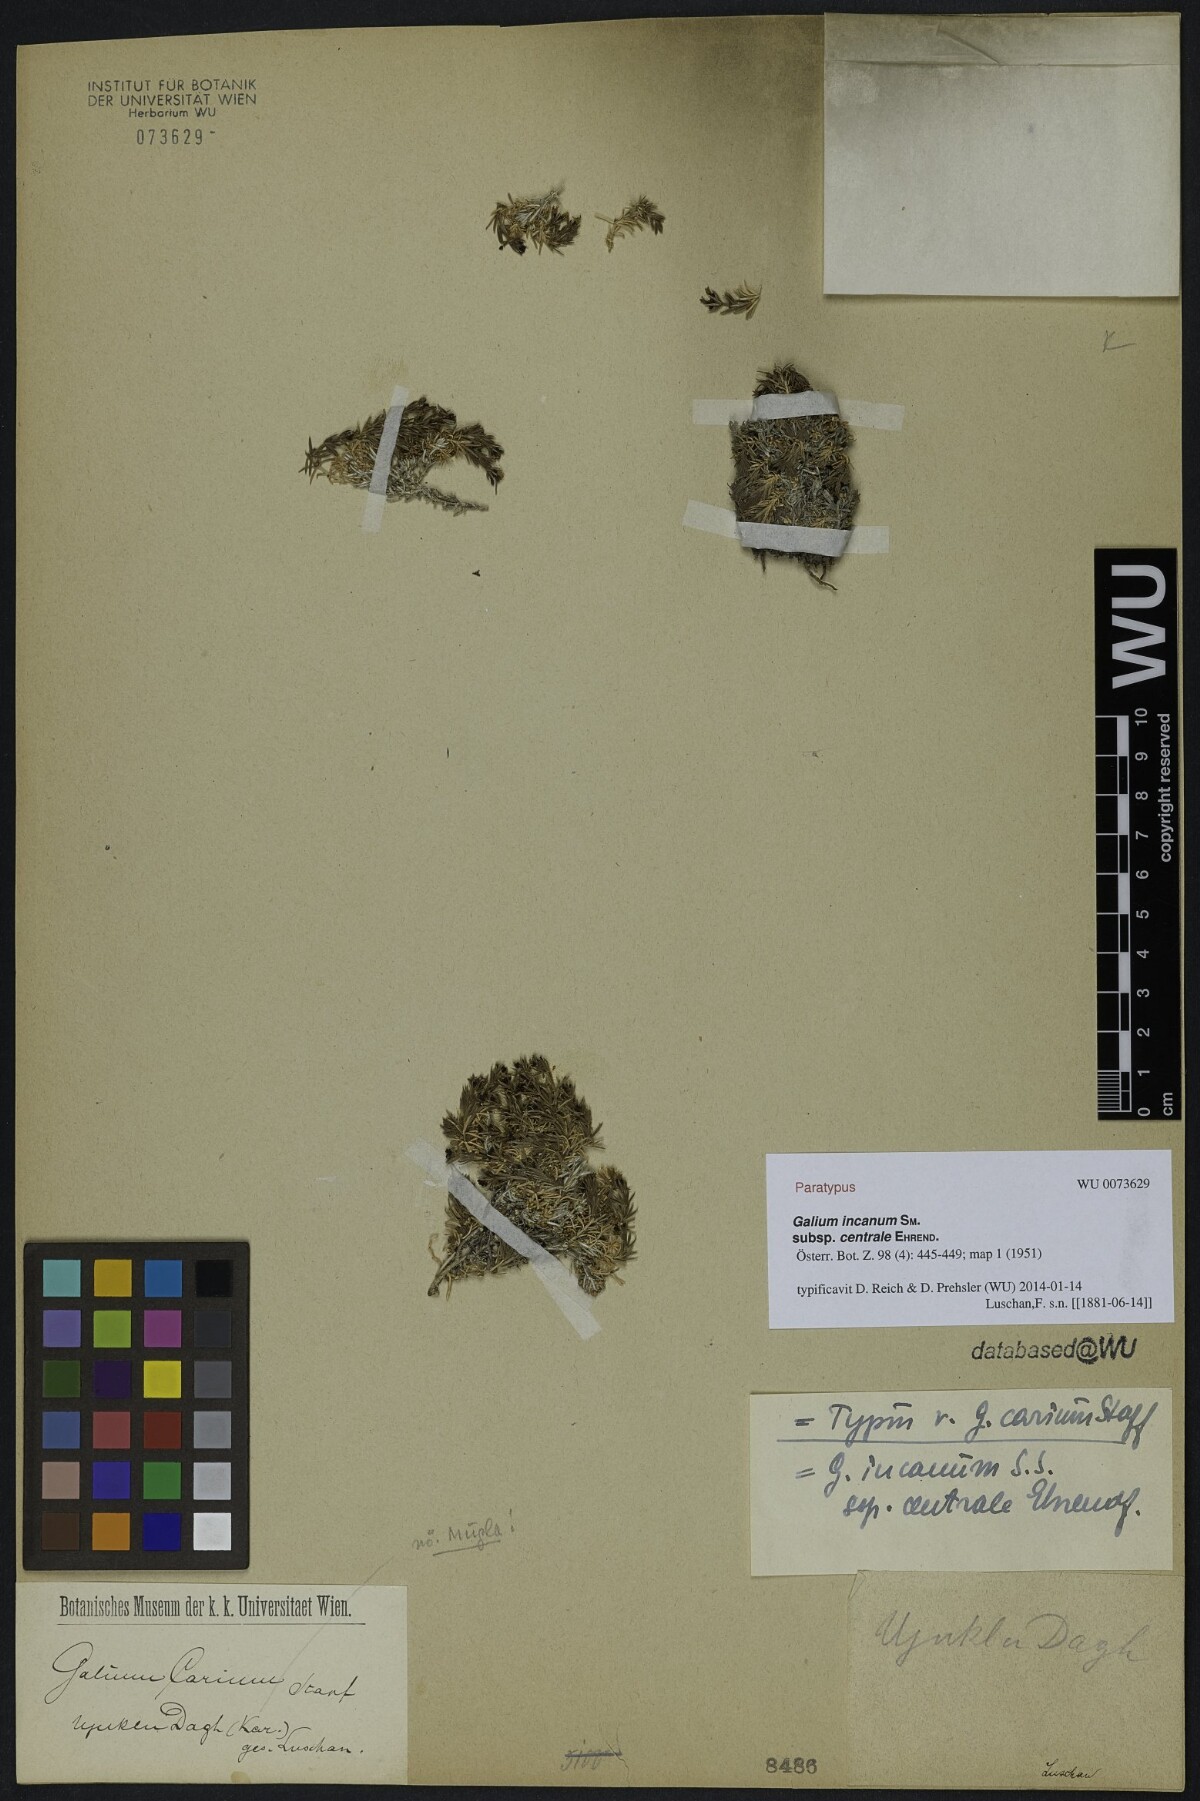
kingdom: Plantae
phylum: Tracheophyta
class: Magnoliopsida
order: Gentianales
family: Rubiaceae
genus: Galium
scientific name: Galium incanum
